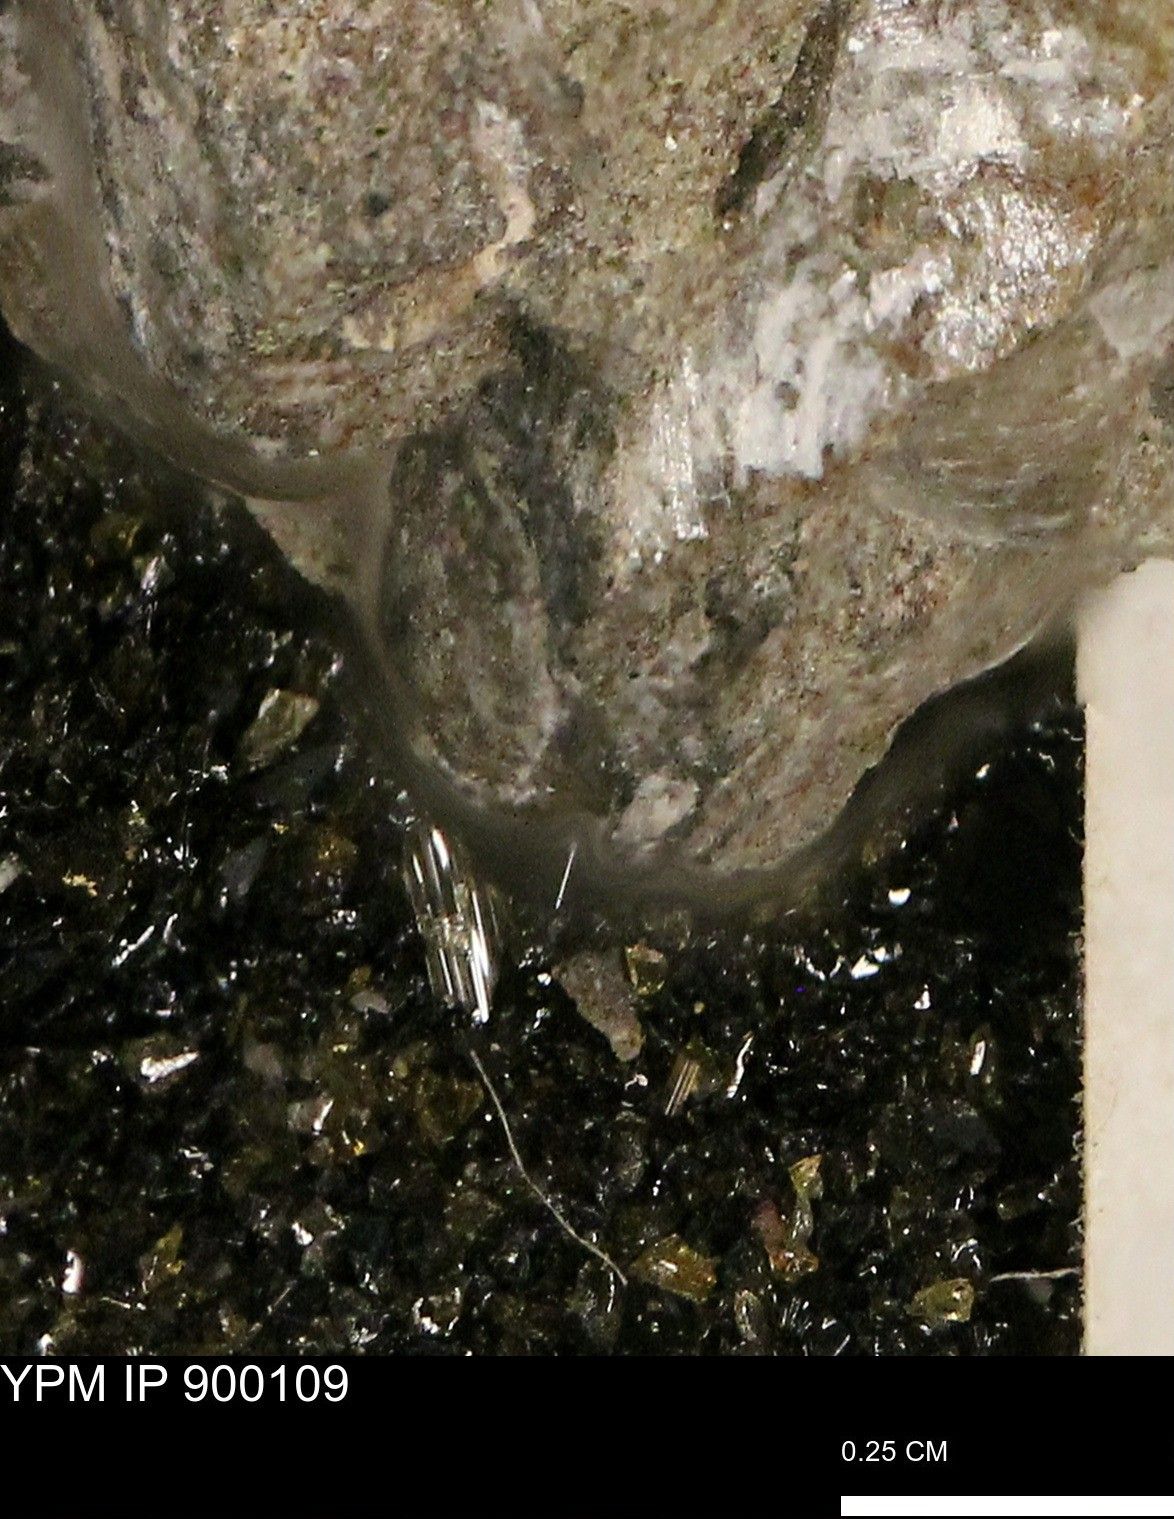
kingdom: Animalia
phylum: Mollusca
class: Bivalvia
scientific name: Bivalvia
